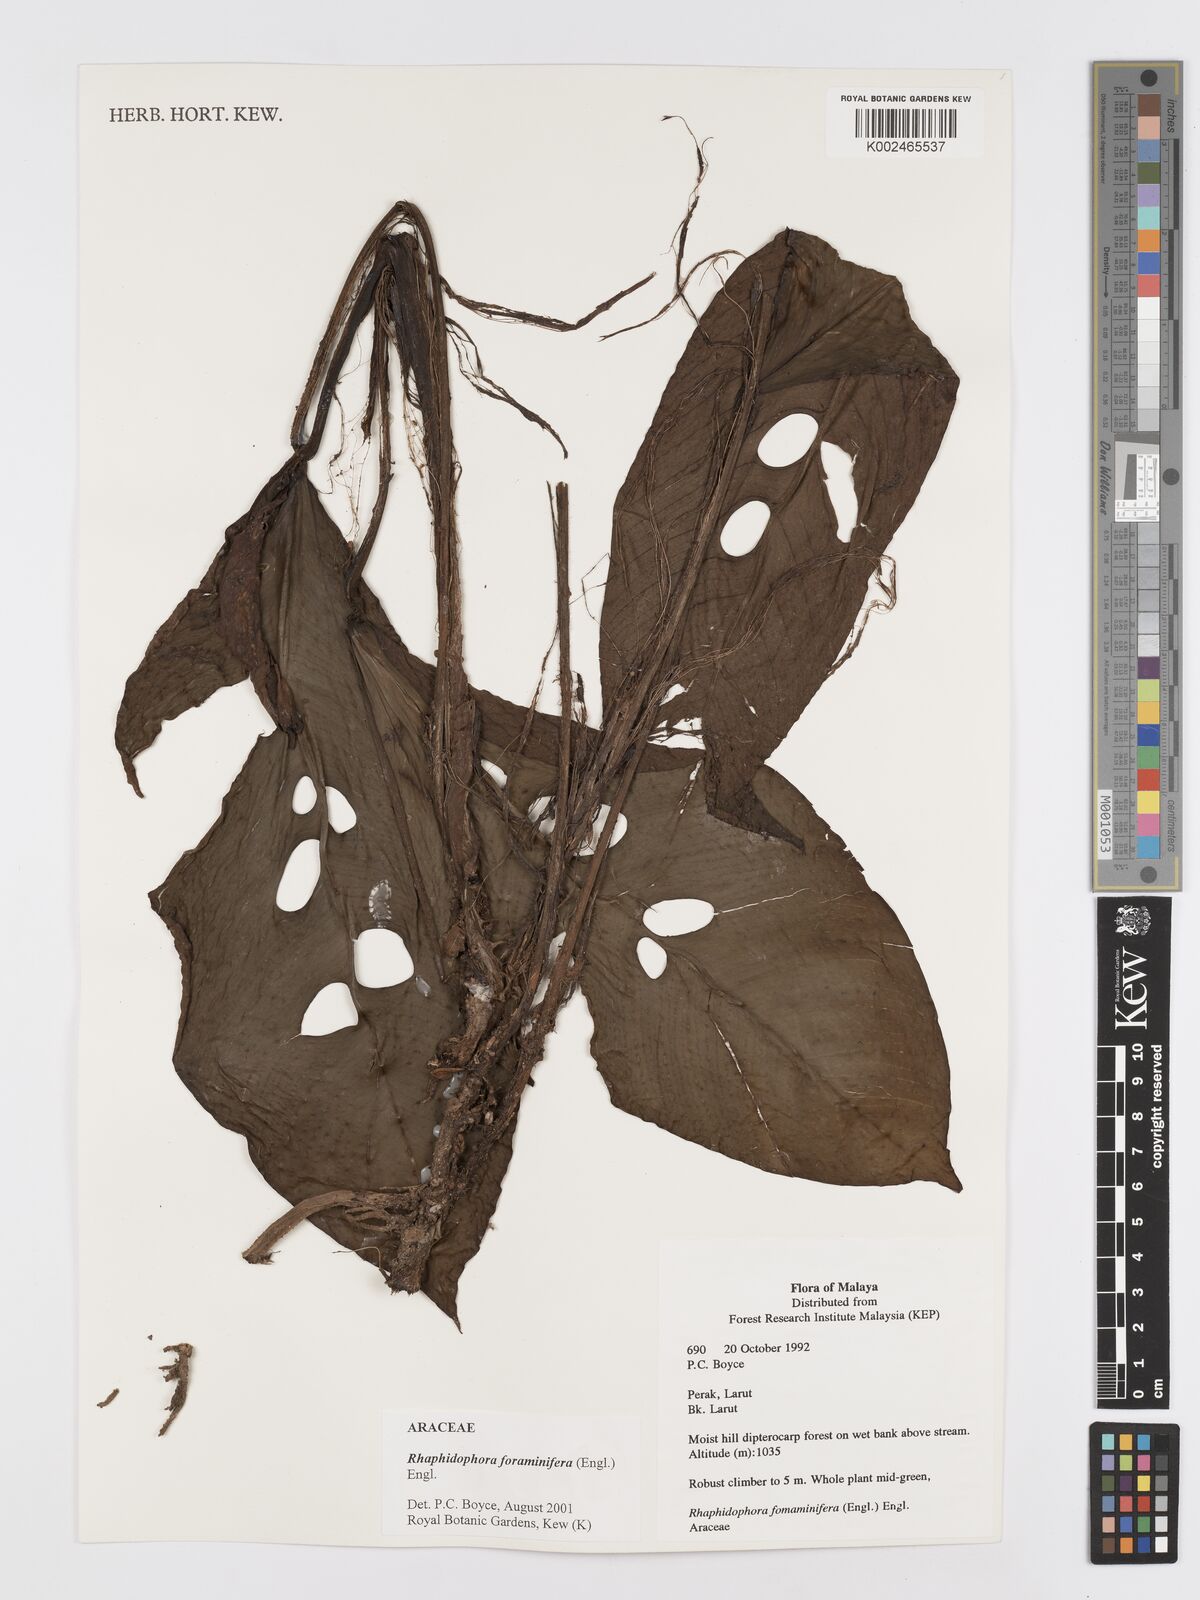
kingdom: Plantae
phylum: Tracheophyta
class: Liliopsida
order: Alismatales
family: Araceae
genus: Rhaphidophora
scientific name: Rhaphidophora foraminifera
